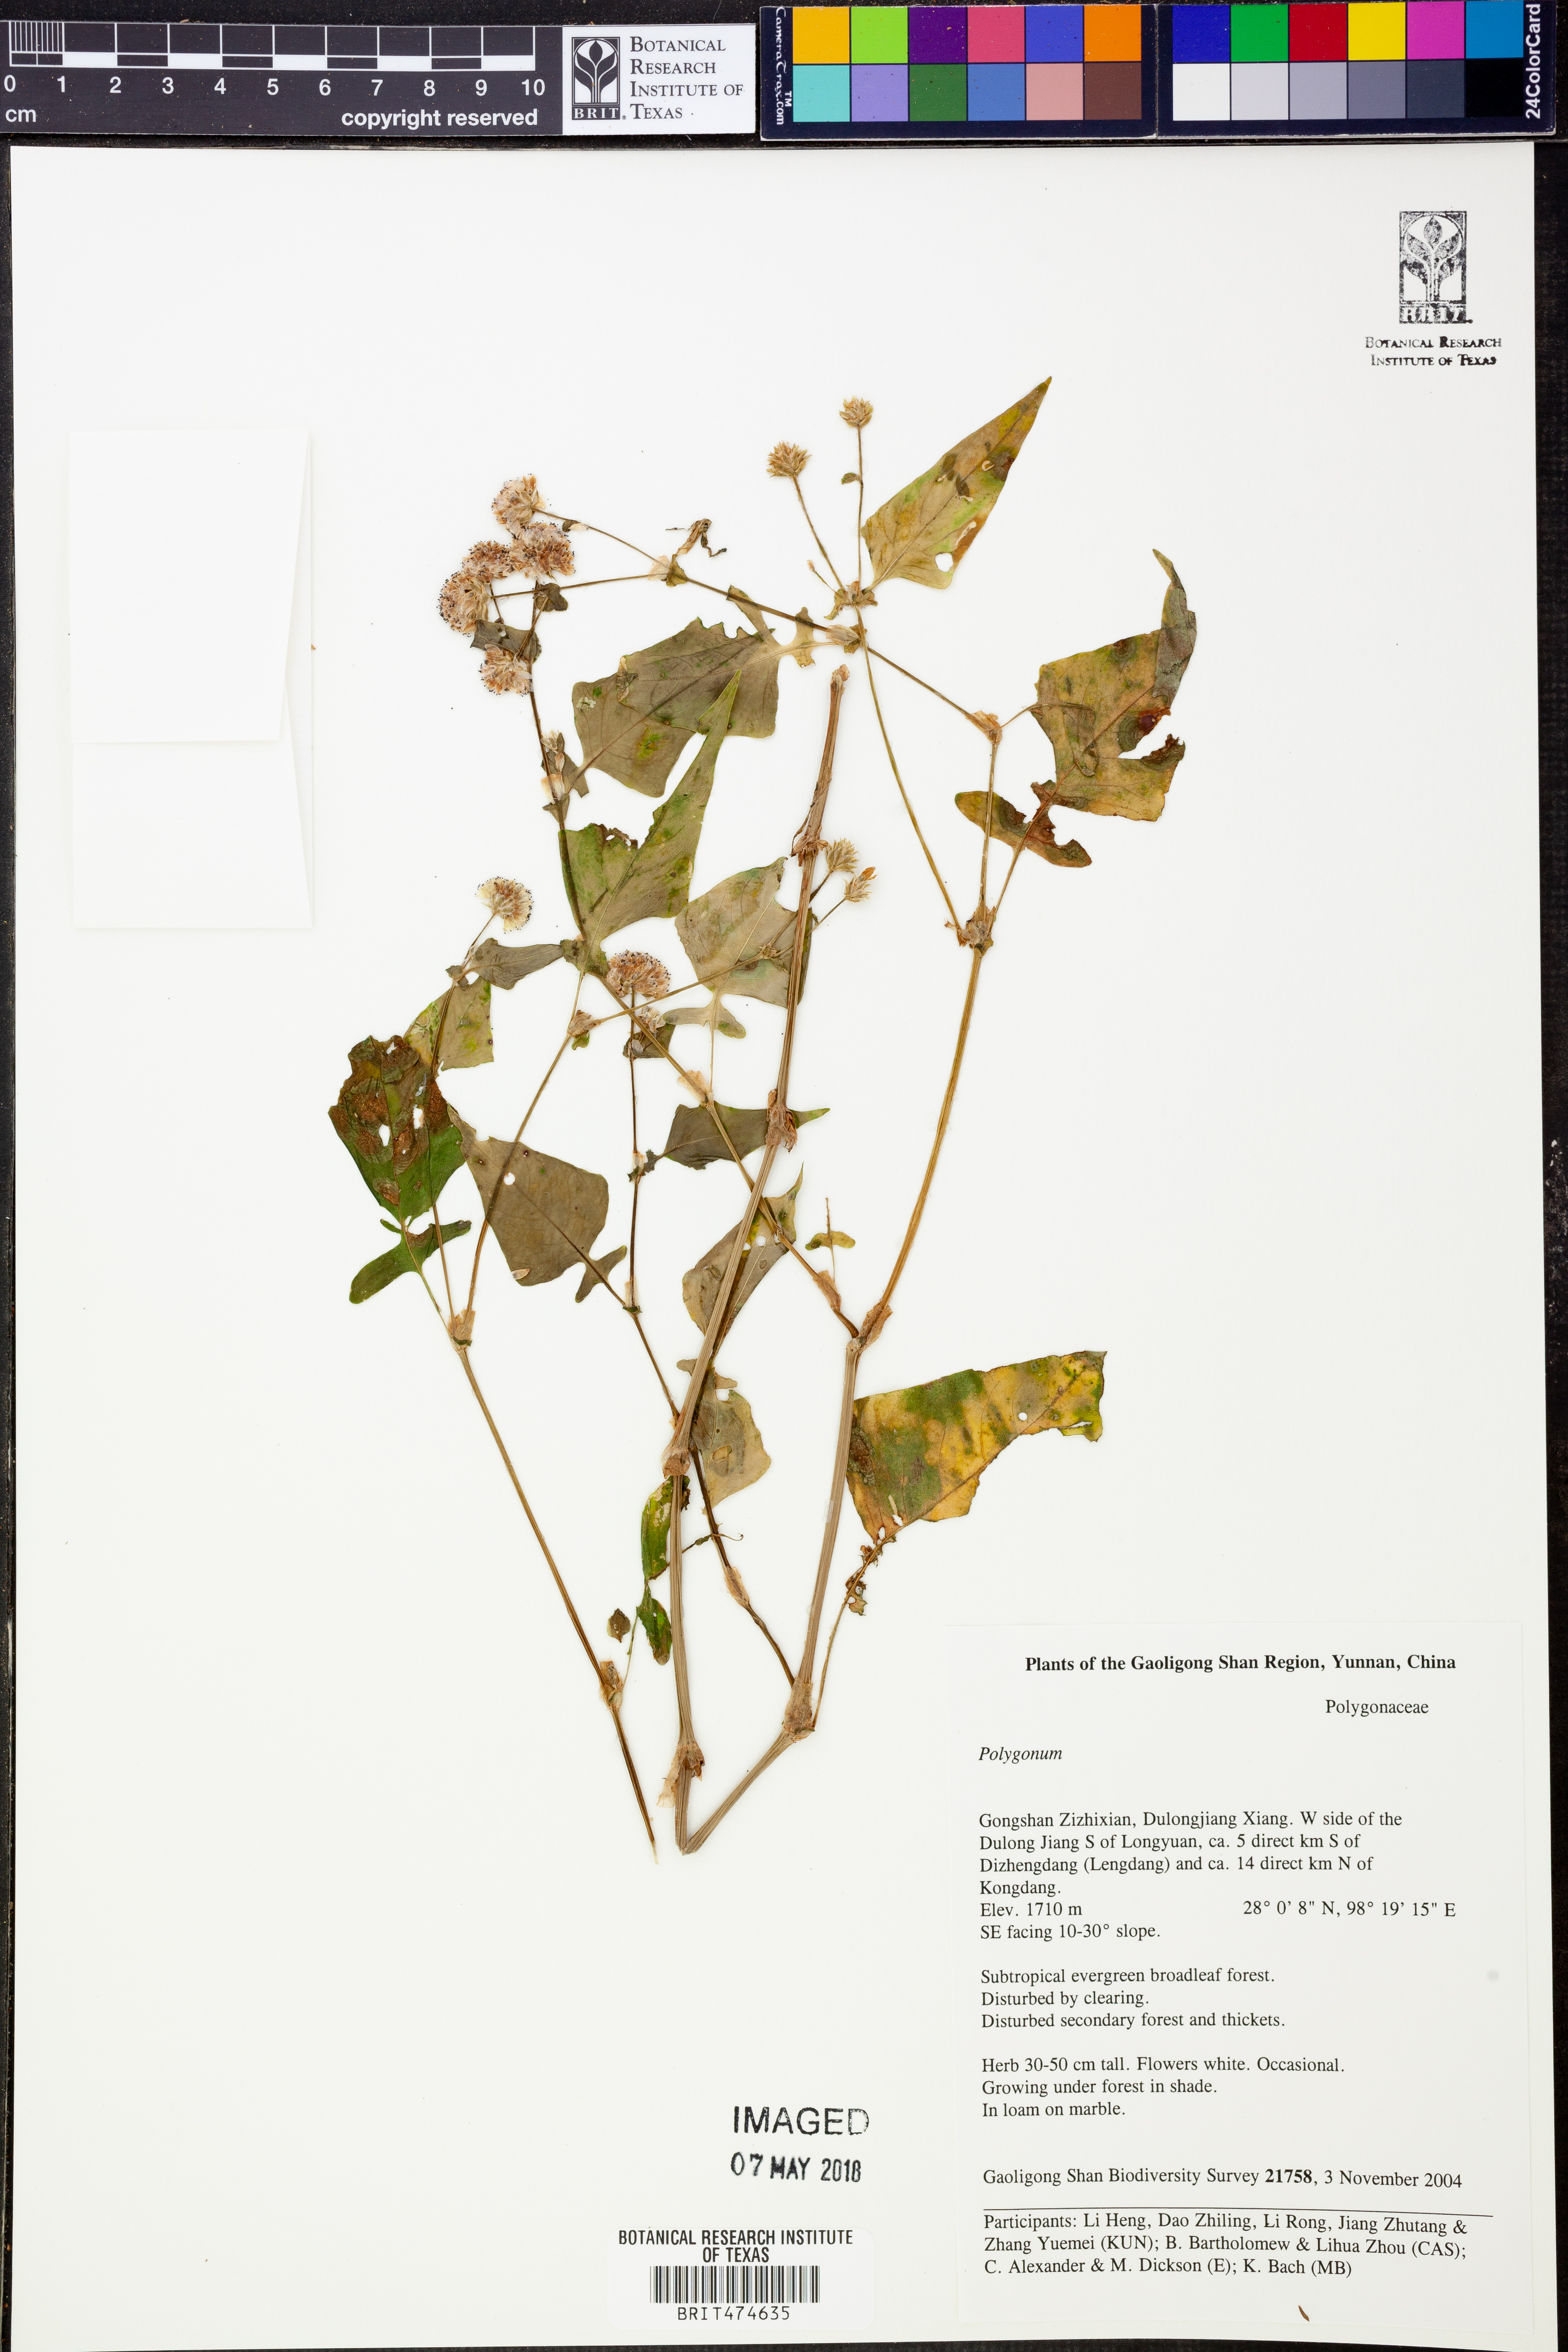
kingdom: Plantae
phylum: Tracheophyta
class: Magnoliopsida
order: Caryophyllales
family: Polygonaceae
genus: Persicaria
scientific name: Persicaria runcinata
